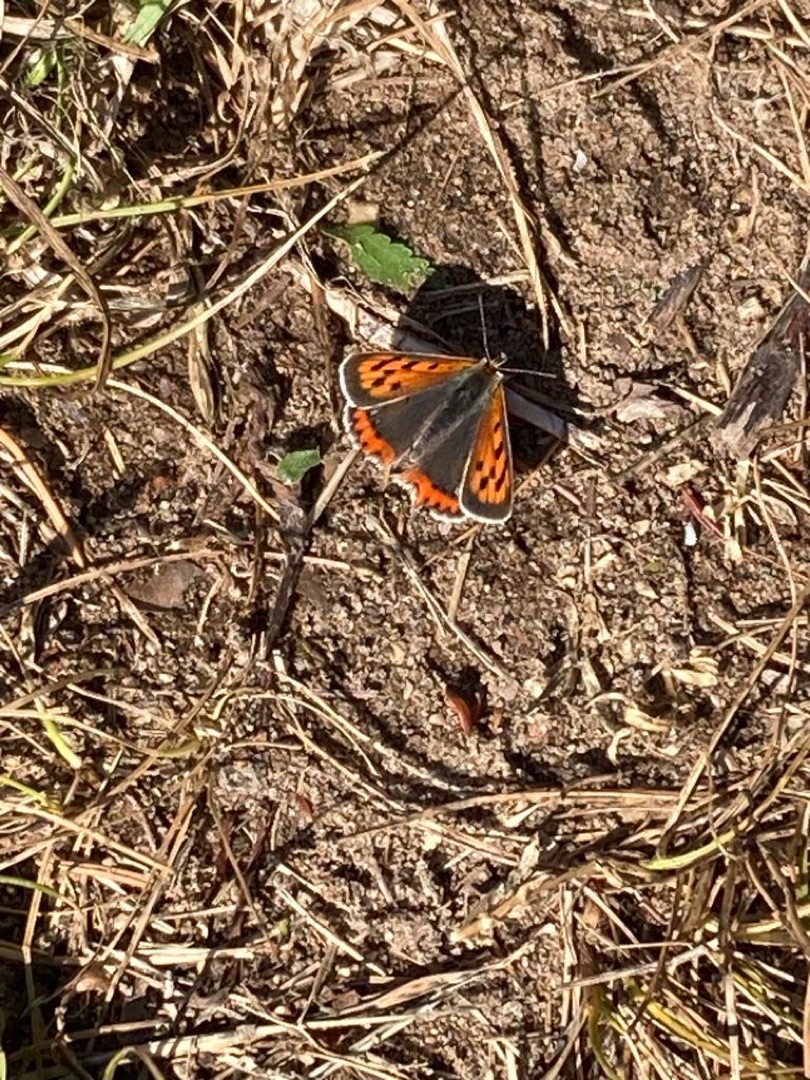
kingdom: Animalia
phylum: Arthropoda
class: Insecta
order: Lepidoptera
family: Lycaenidae
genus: Lycaena
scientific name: Lycaena phlaeas
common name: Lille ildfugl
